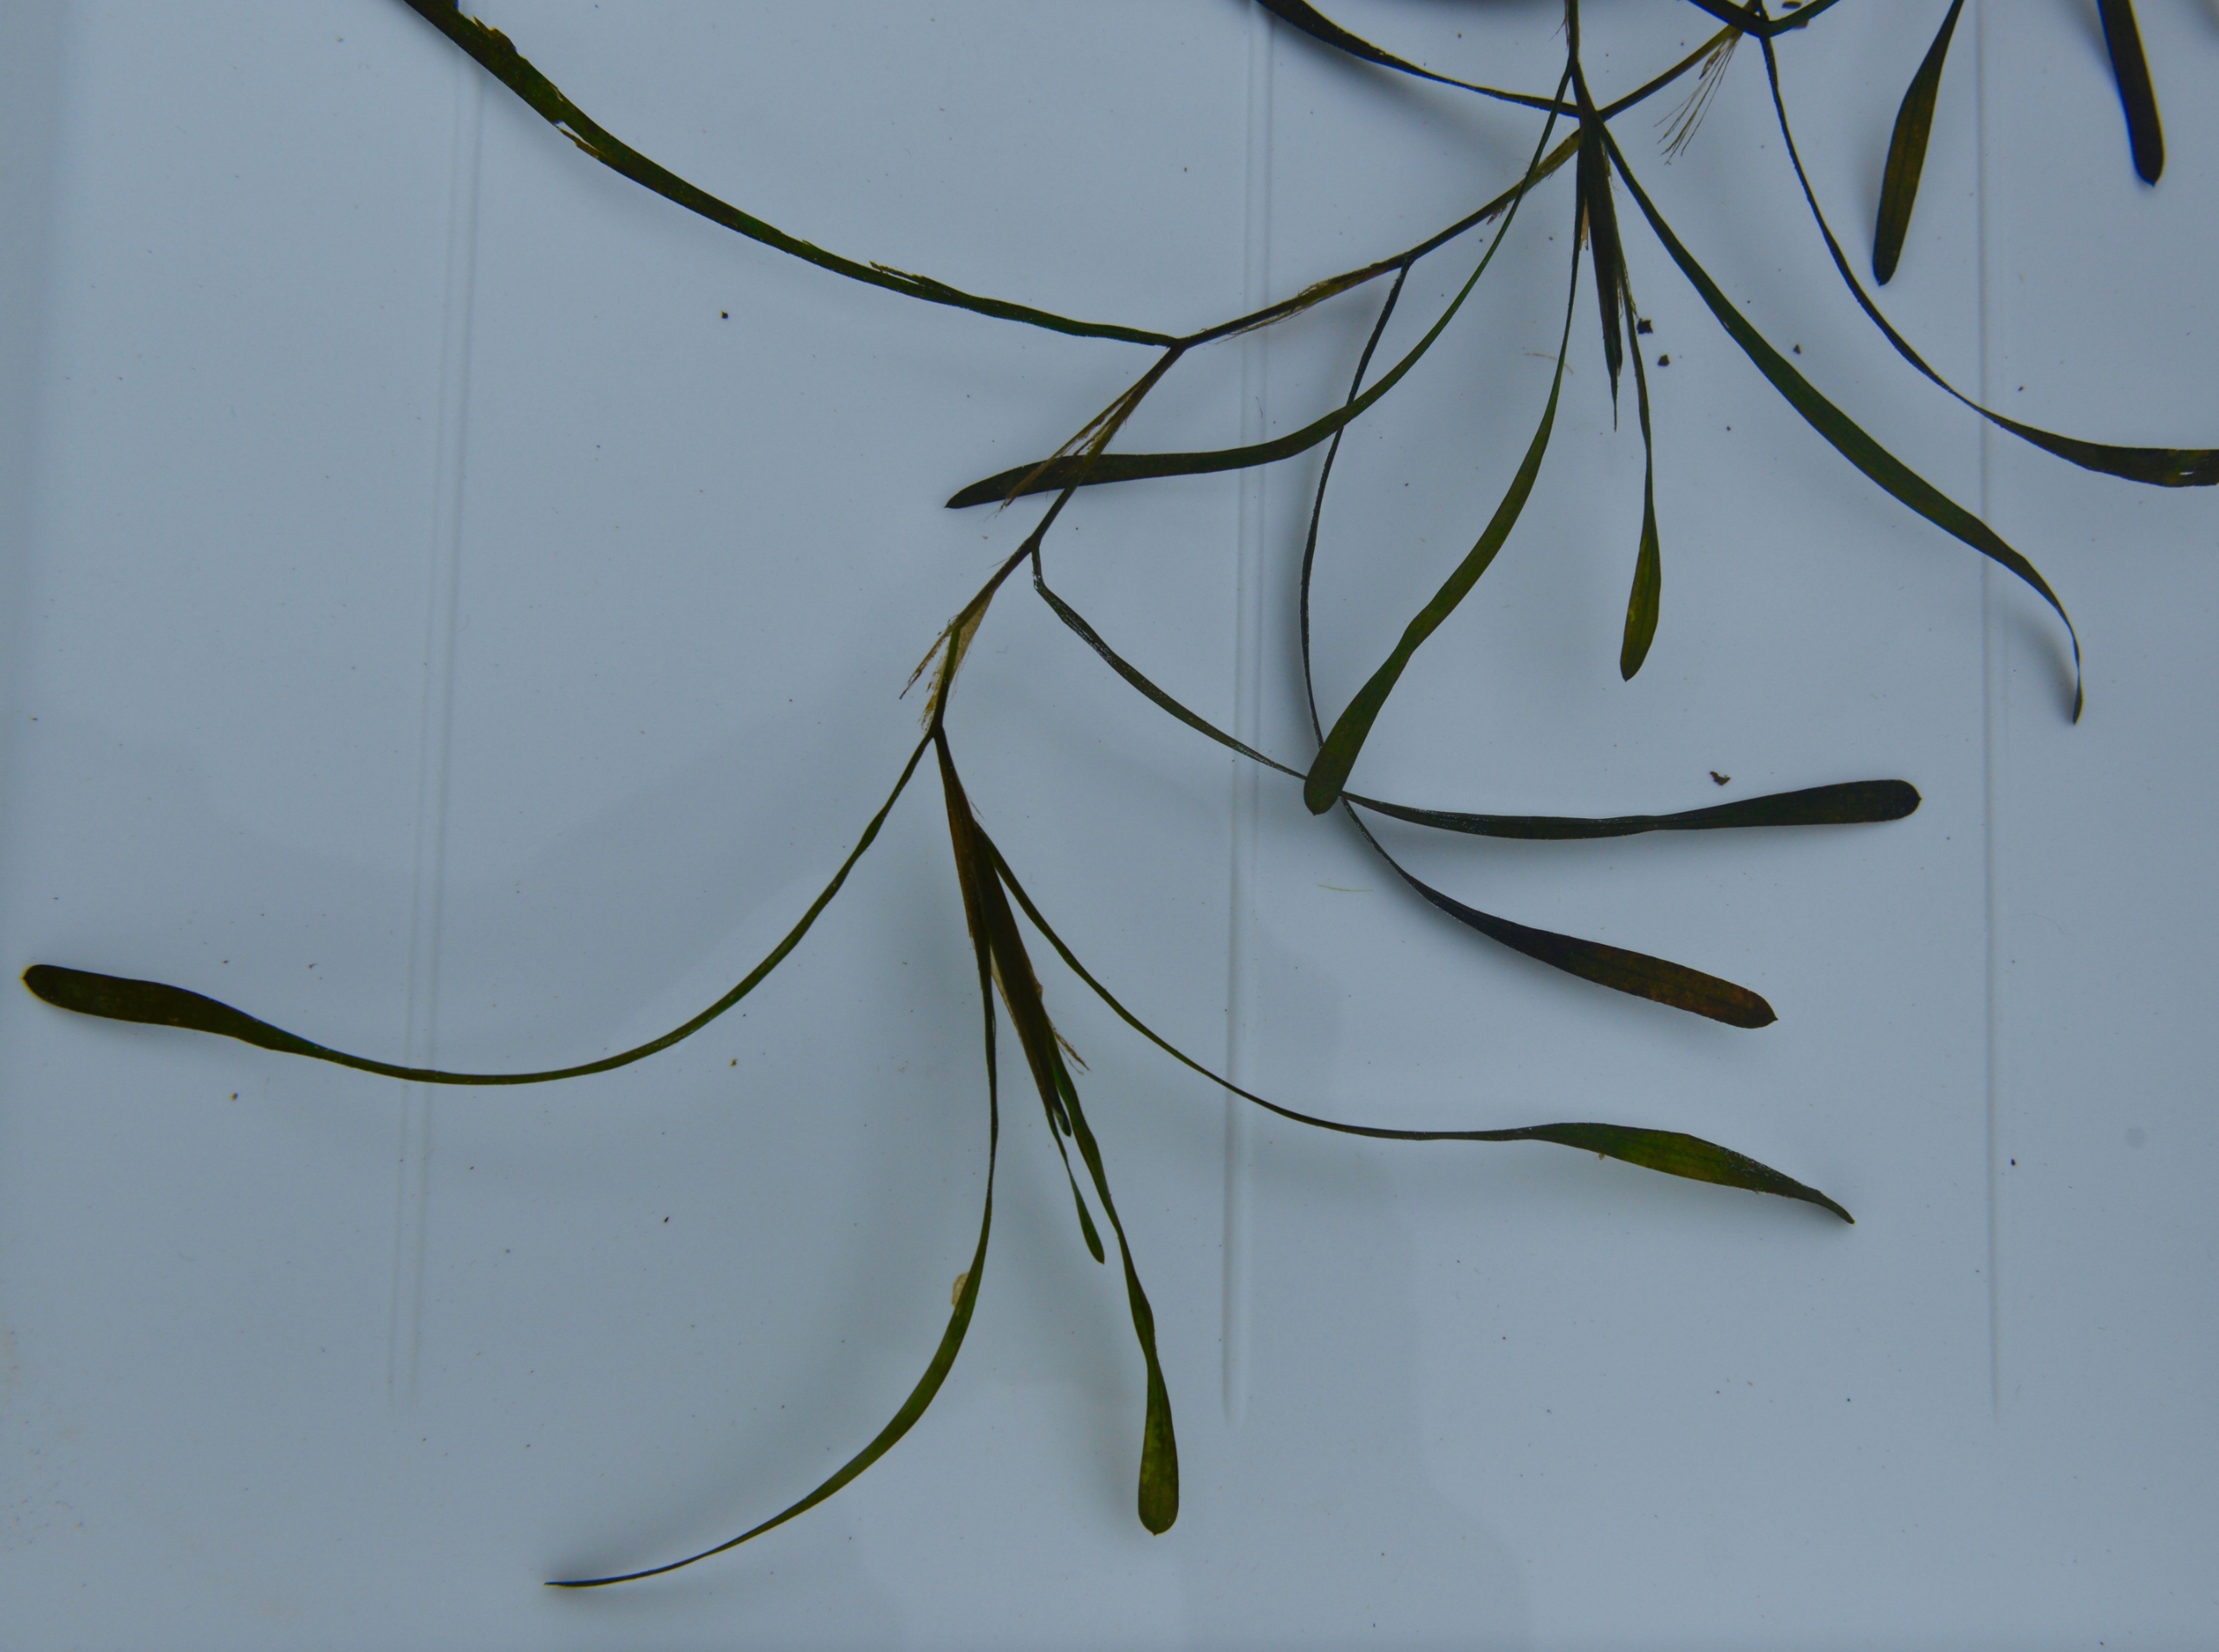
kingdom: Plantae
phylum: Tracheophyta
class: Liliopsida
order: Alismatales
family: Potamogetonaceae
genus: Potamogeton
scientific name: Potamogeton compressus
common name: Bændel-vandaks
